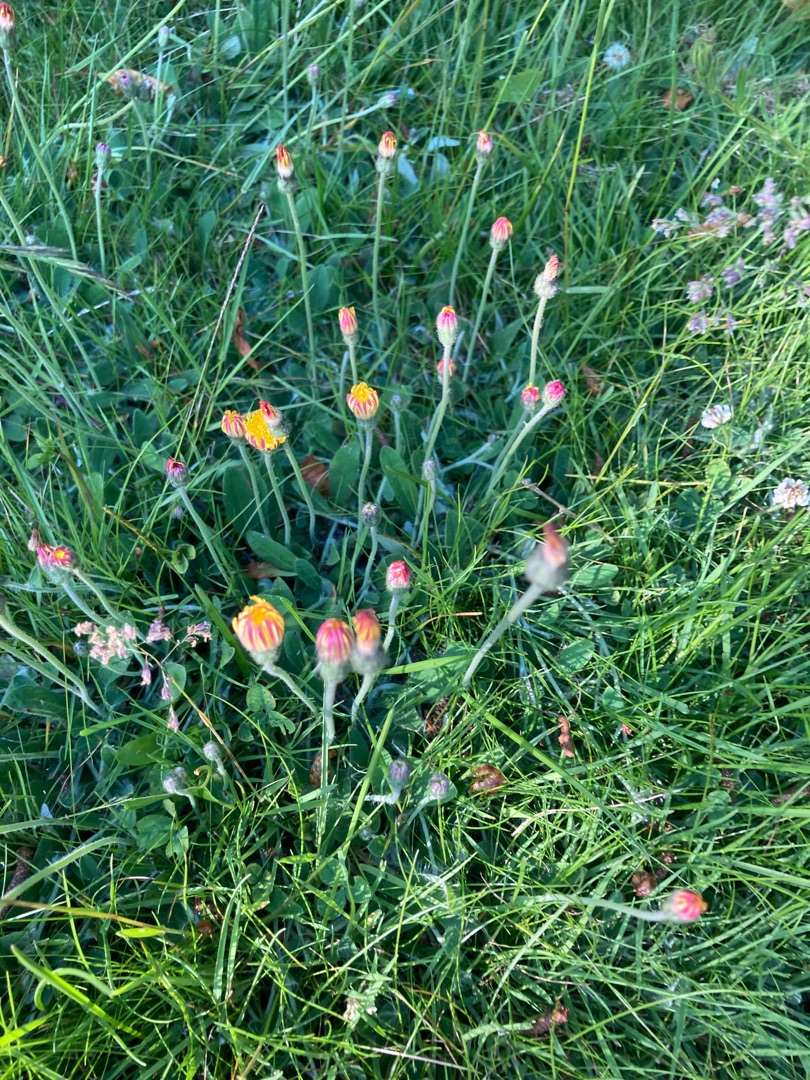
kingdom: Plantae
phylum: Tracheophyta
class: Magnoliopsida
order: Asterales
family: Asteraceae
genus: Pilosella
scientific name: Pilosella officinarum
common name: Håret høgeurt
